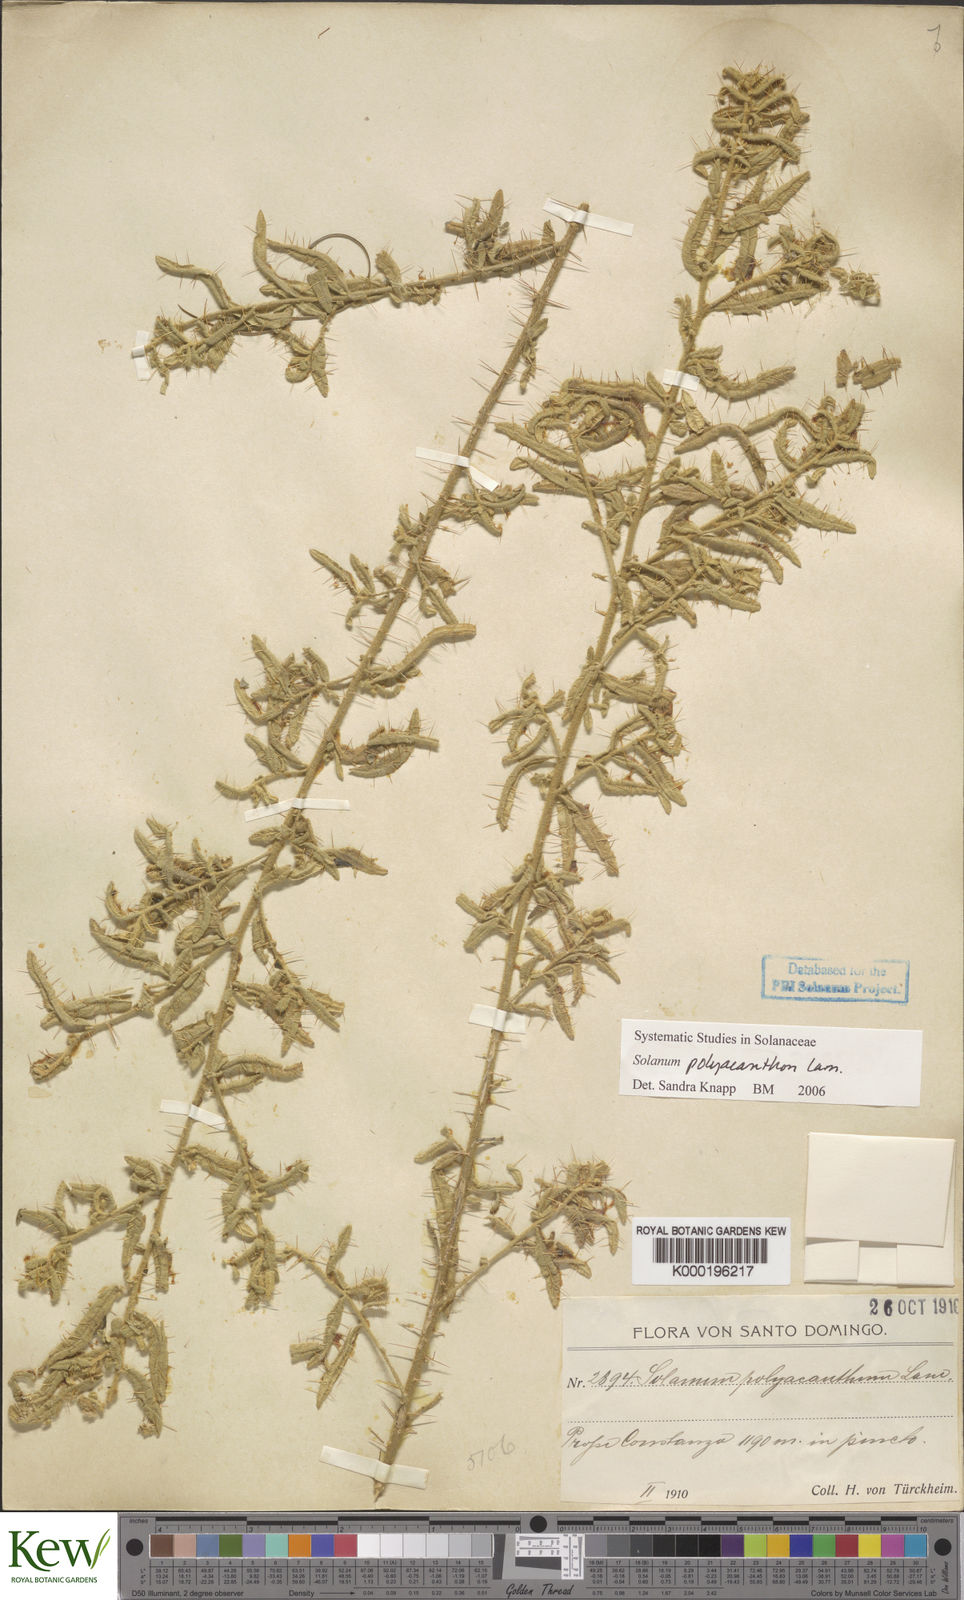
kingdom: Plantae
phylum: Tracheophyta
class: Magnoliopsida
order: Solanales
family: Solanaceae
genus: Solanum
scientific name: Solanum polyacanthos
